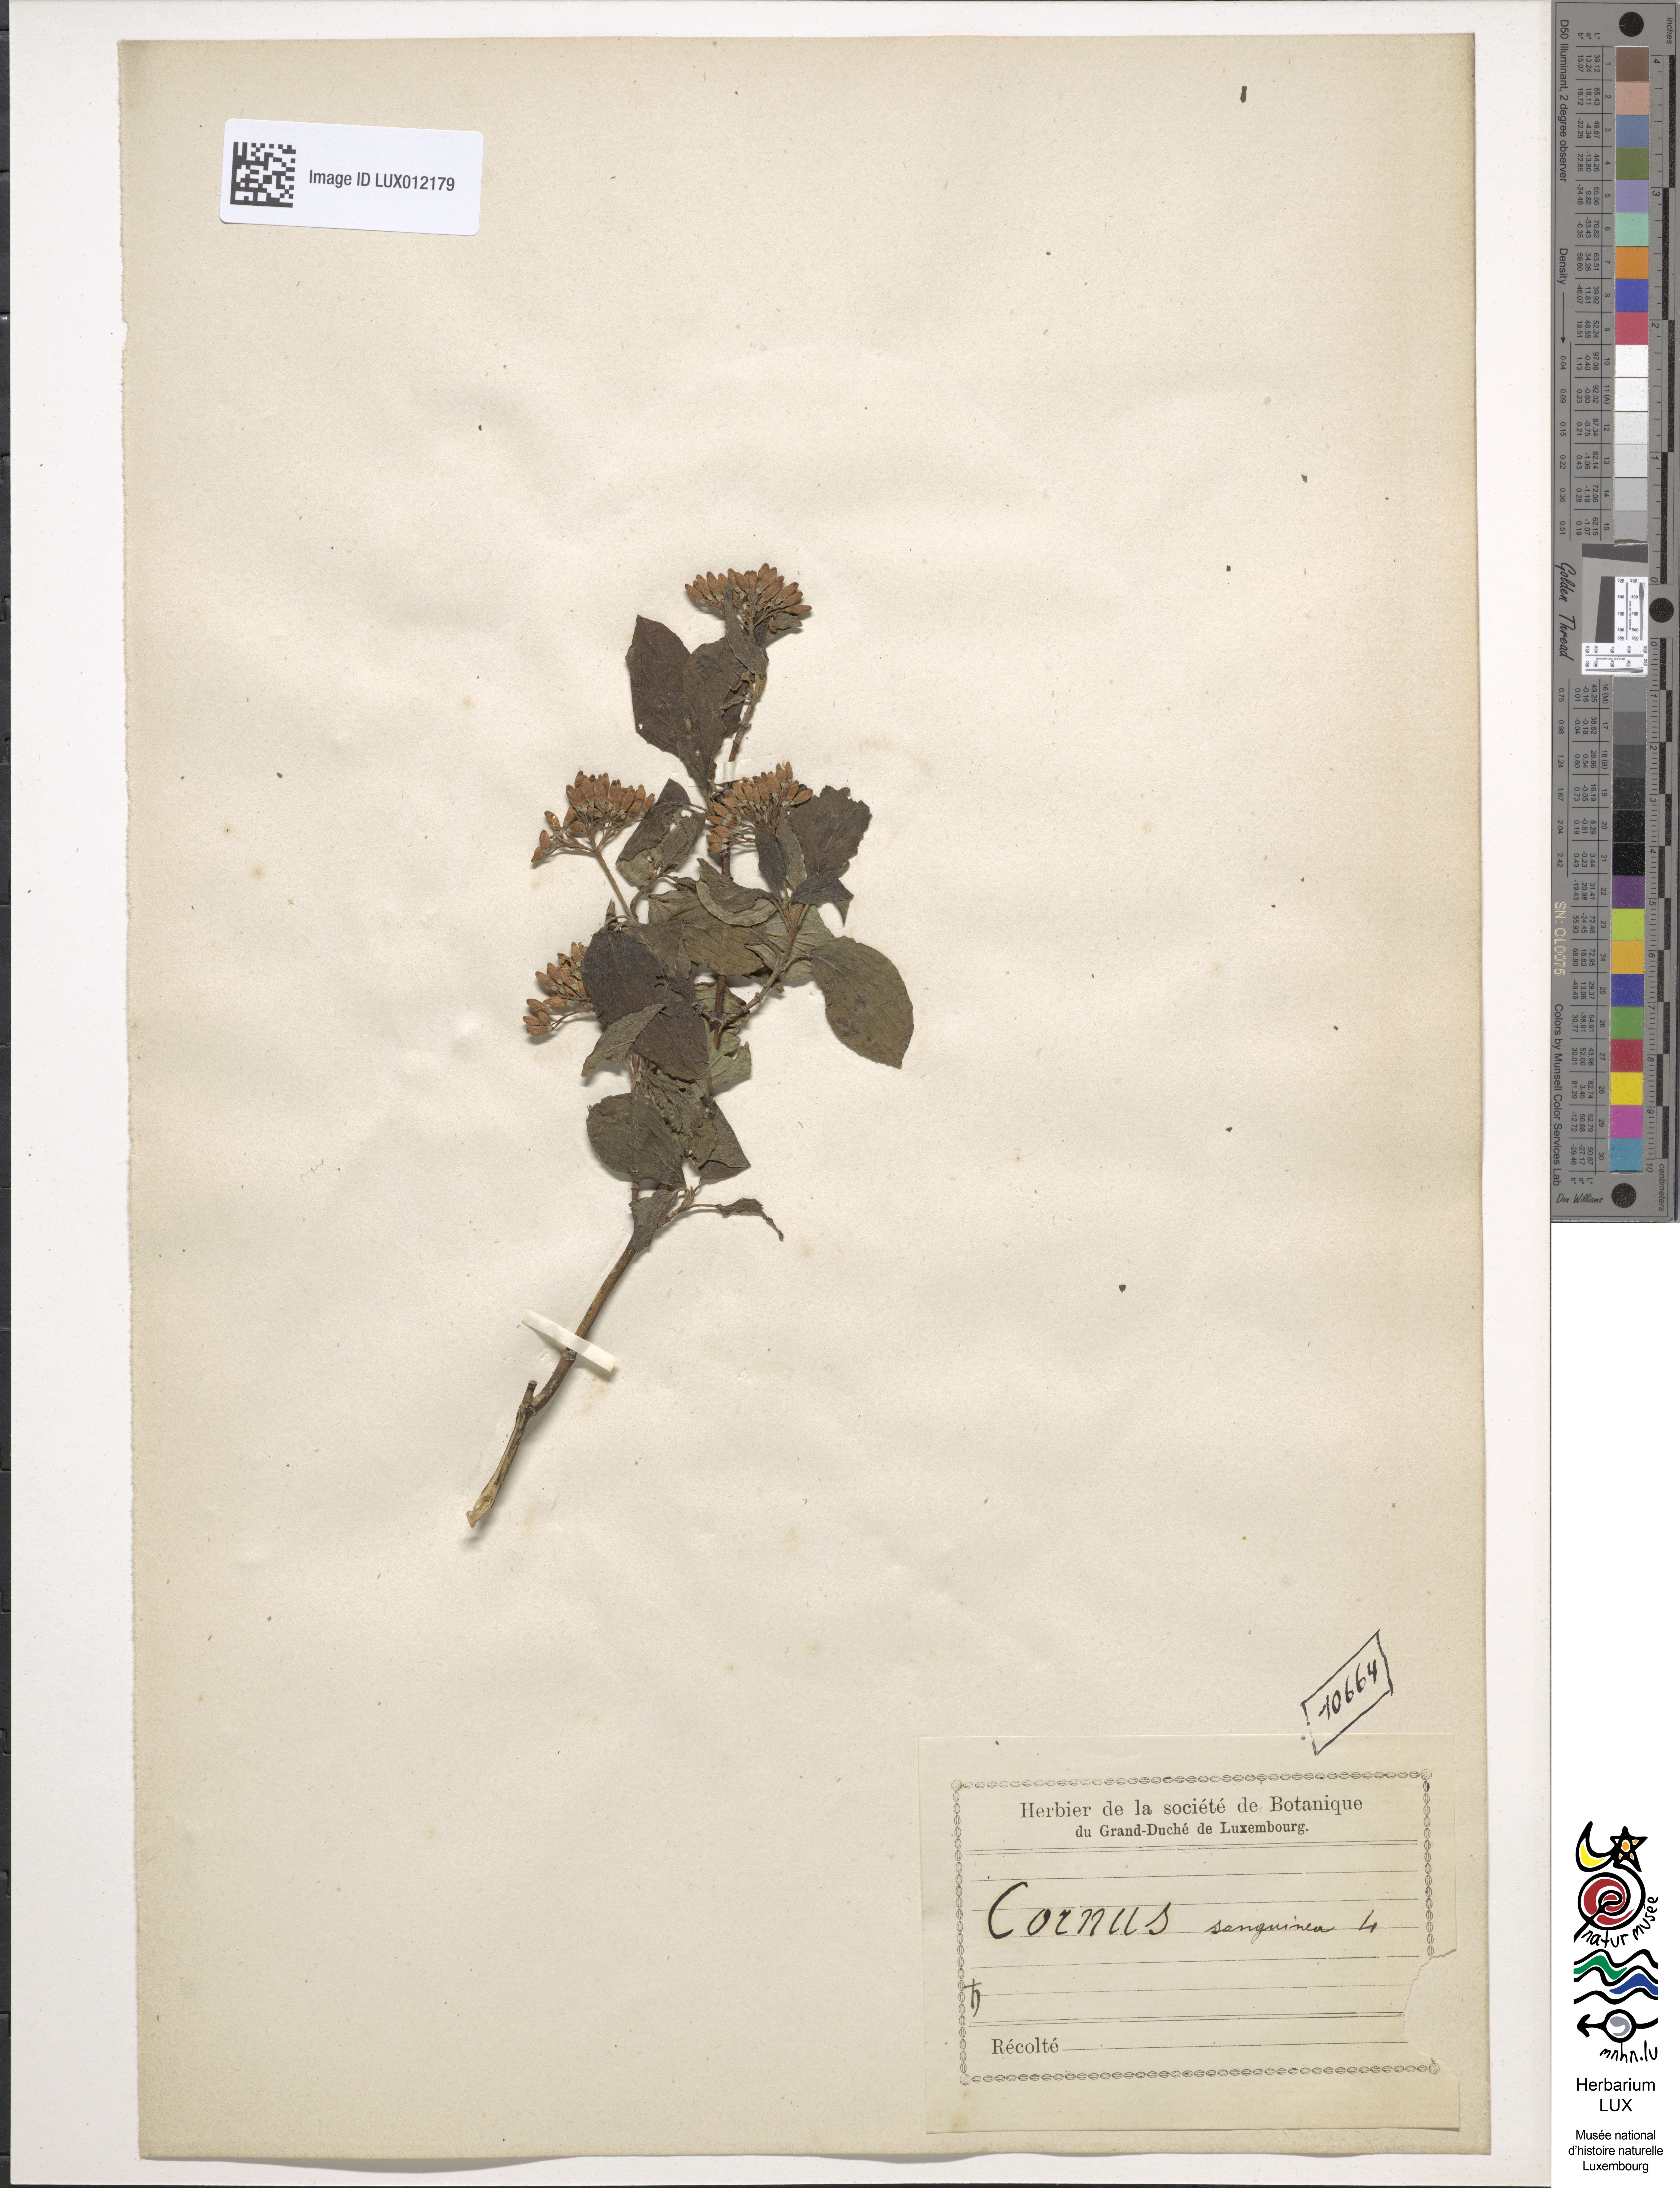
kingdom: Plantae
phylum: Tracheophyta
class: Magnoliopsida
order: Cornales
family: Cornaceae
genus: Cornus
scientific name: Cornus sanguinea
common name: Dogwood
